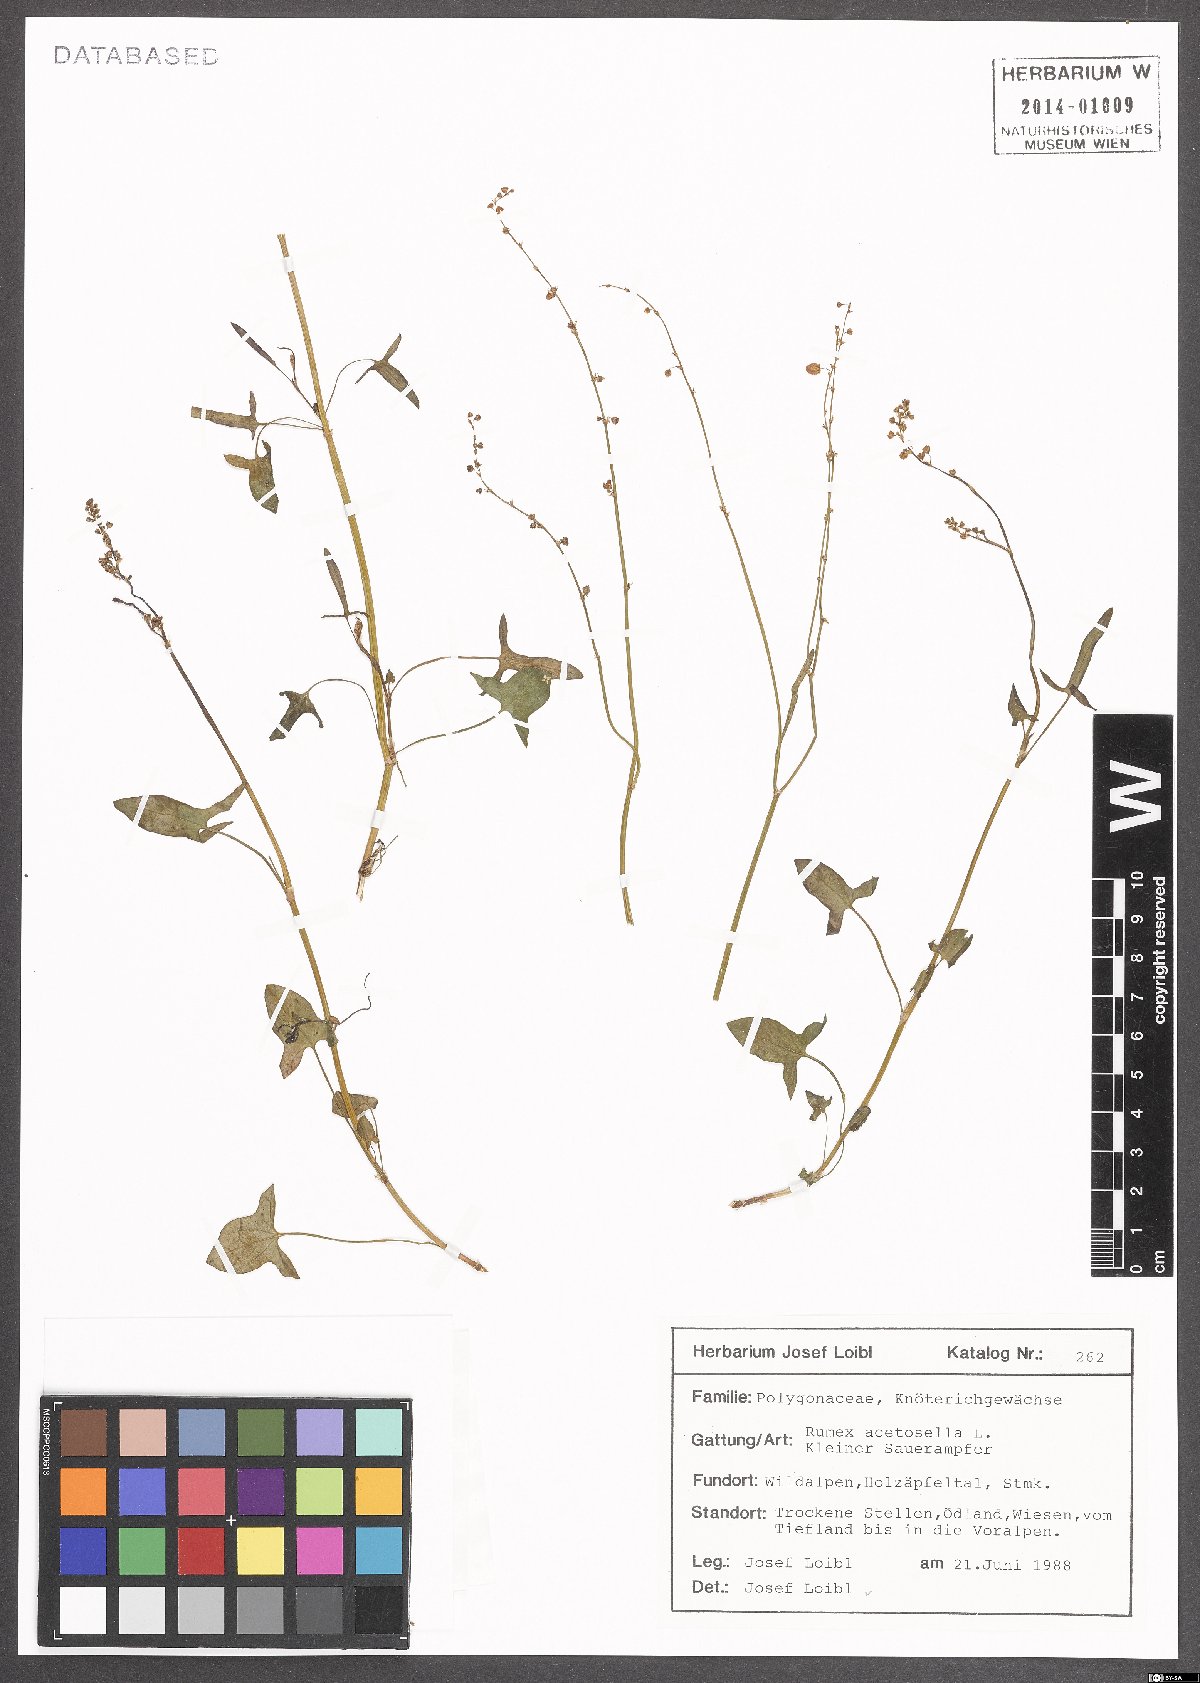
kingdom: Plantae
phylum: Tracheophyta
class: Magnoliopsida
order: Caryophyllales
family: Polygonaceae
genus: Rumex
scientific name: Rumex acetosella
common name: Common sheep sorrel
